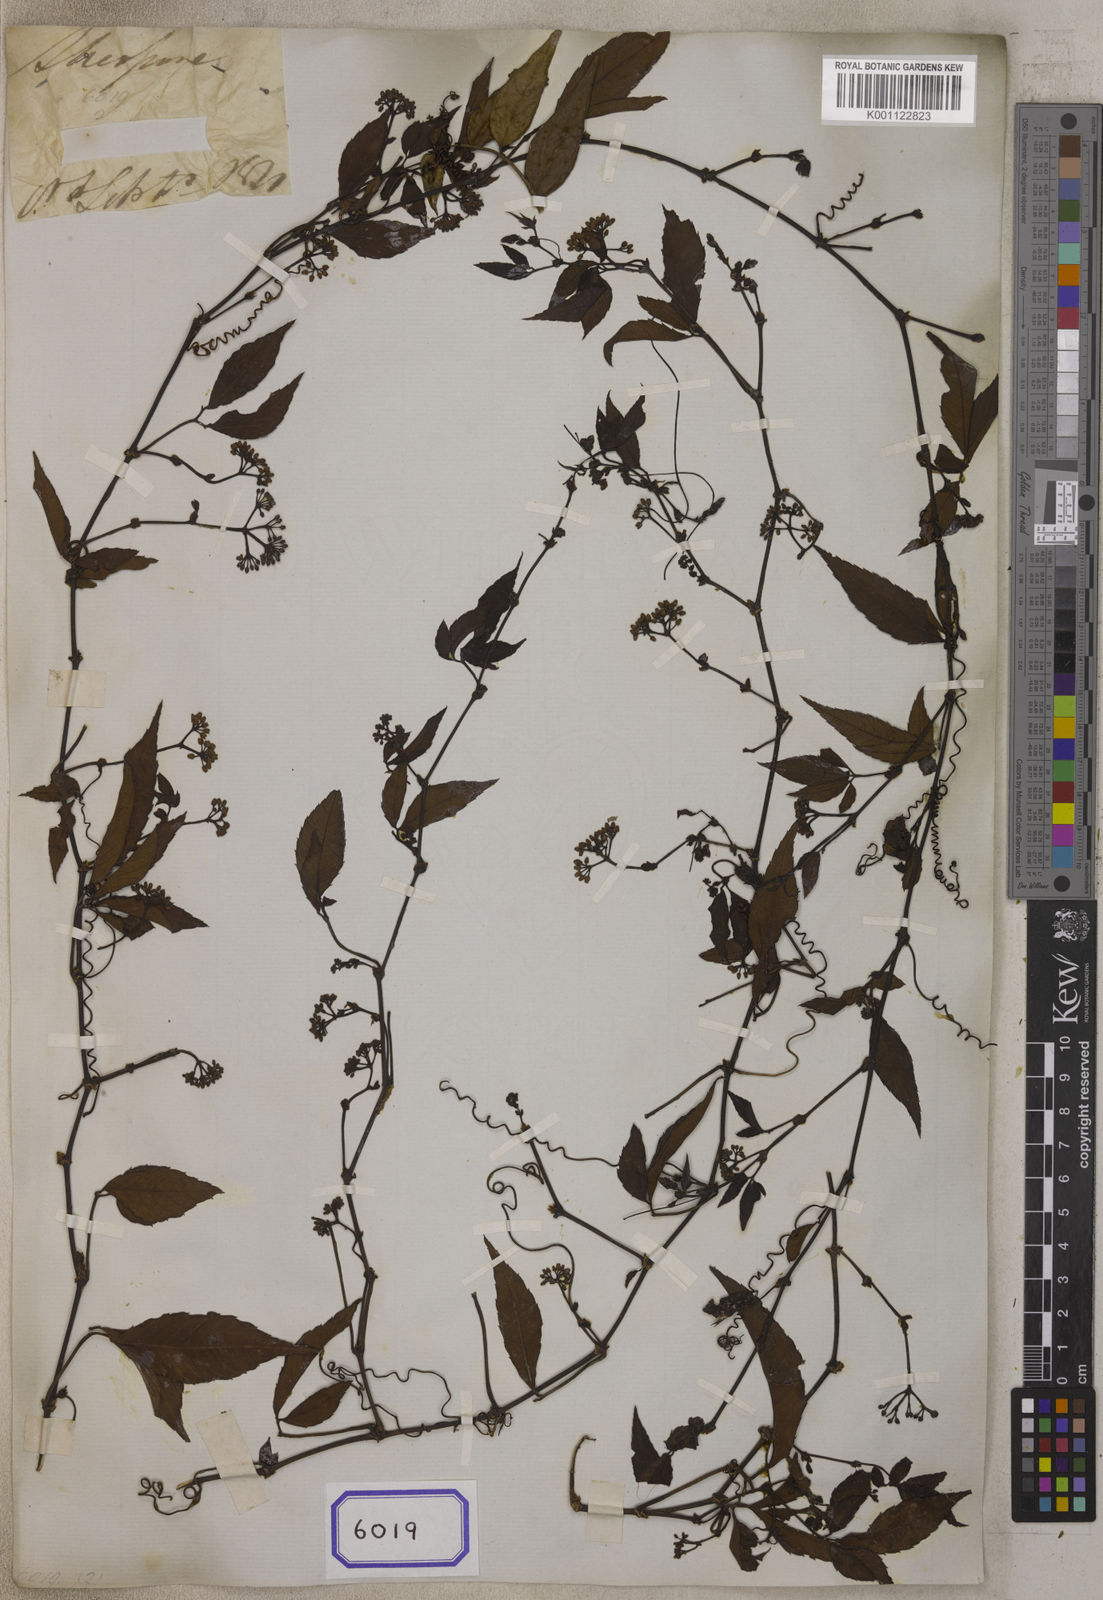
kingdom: Plantae
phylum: Tracheophyta
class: Magnoliopsida
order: Vitales
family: Vitaceae
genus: Tetrastigma
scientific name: Tetrastigma obtectum
